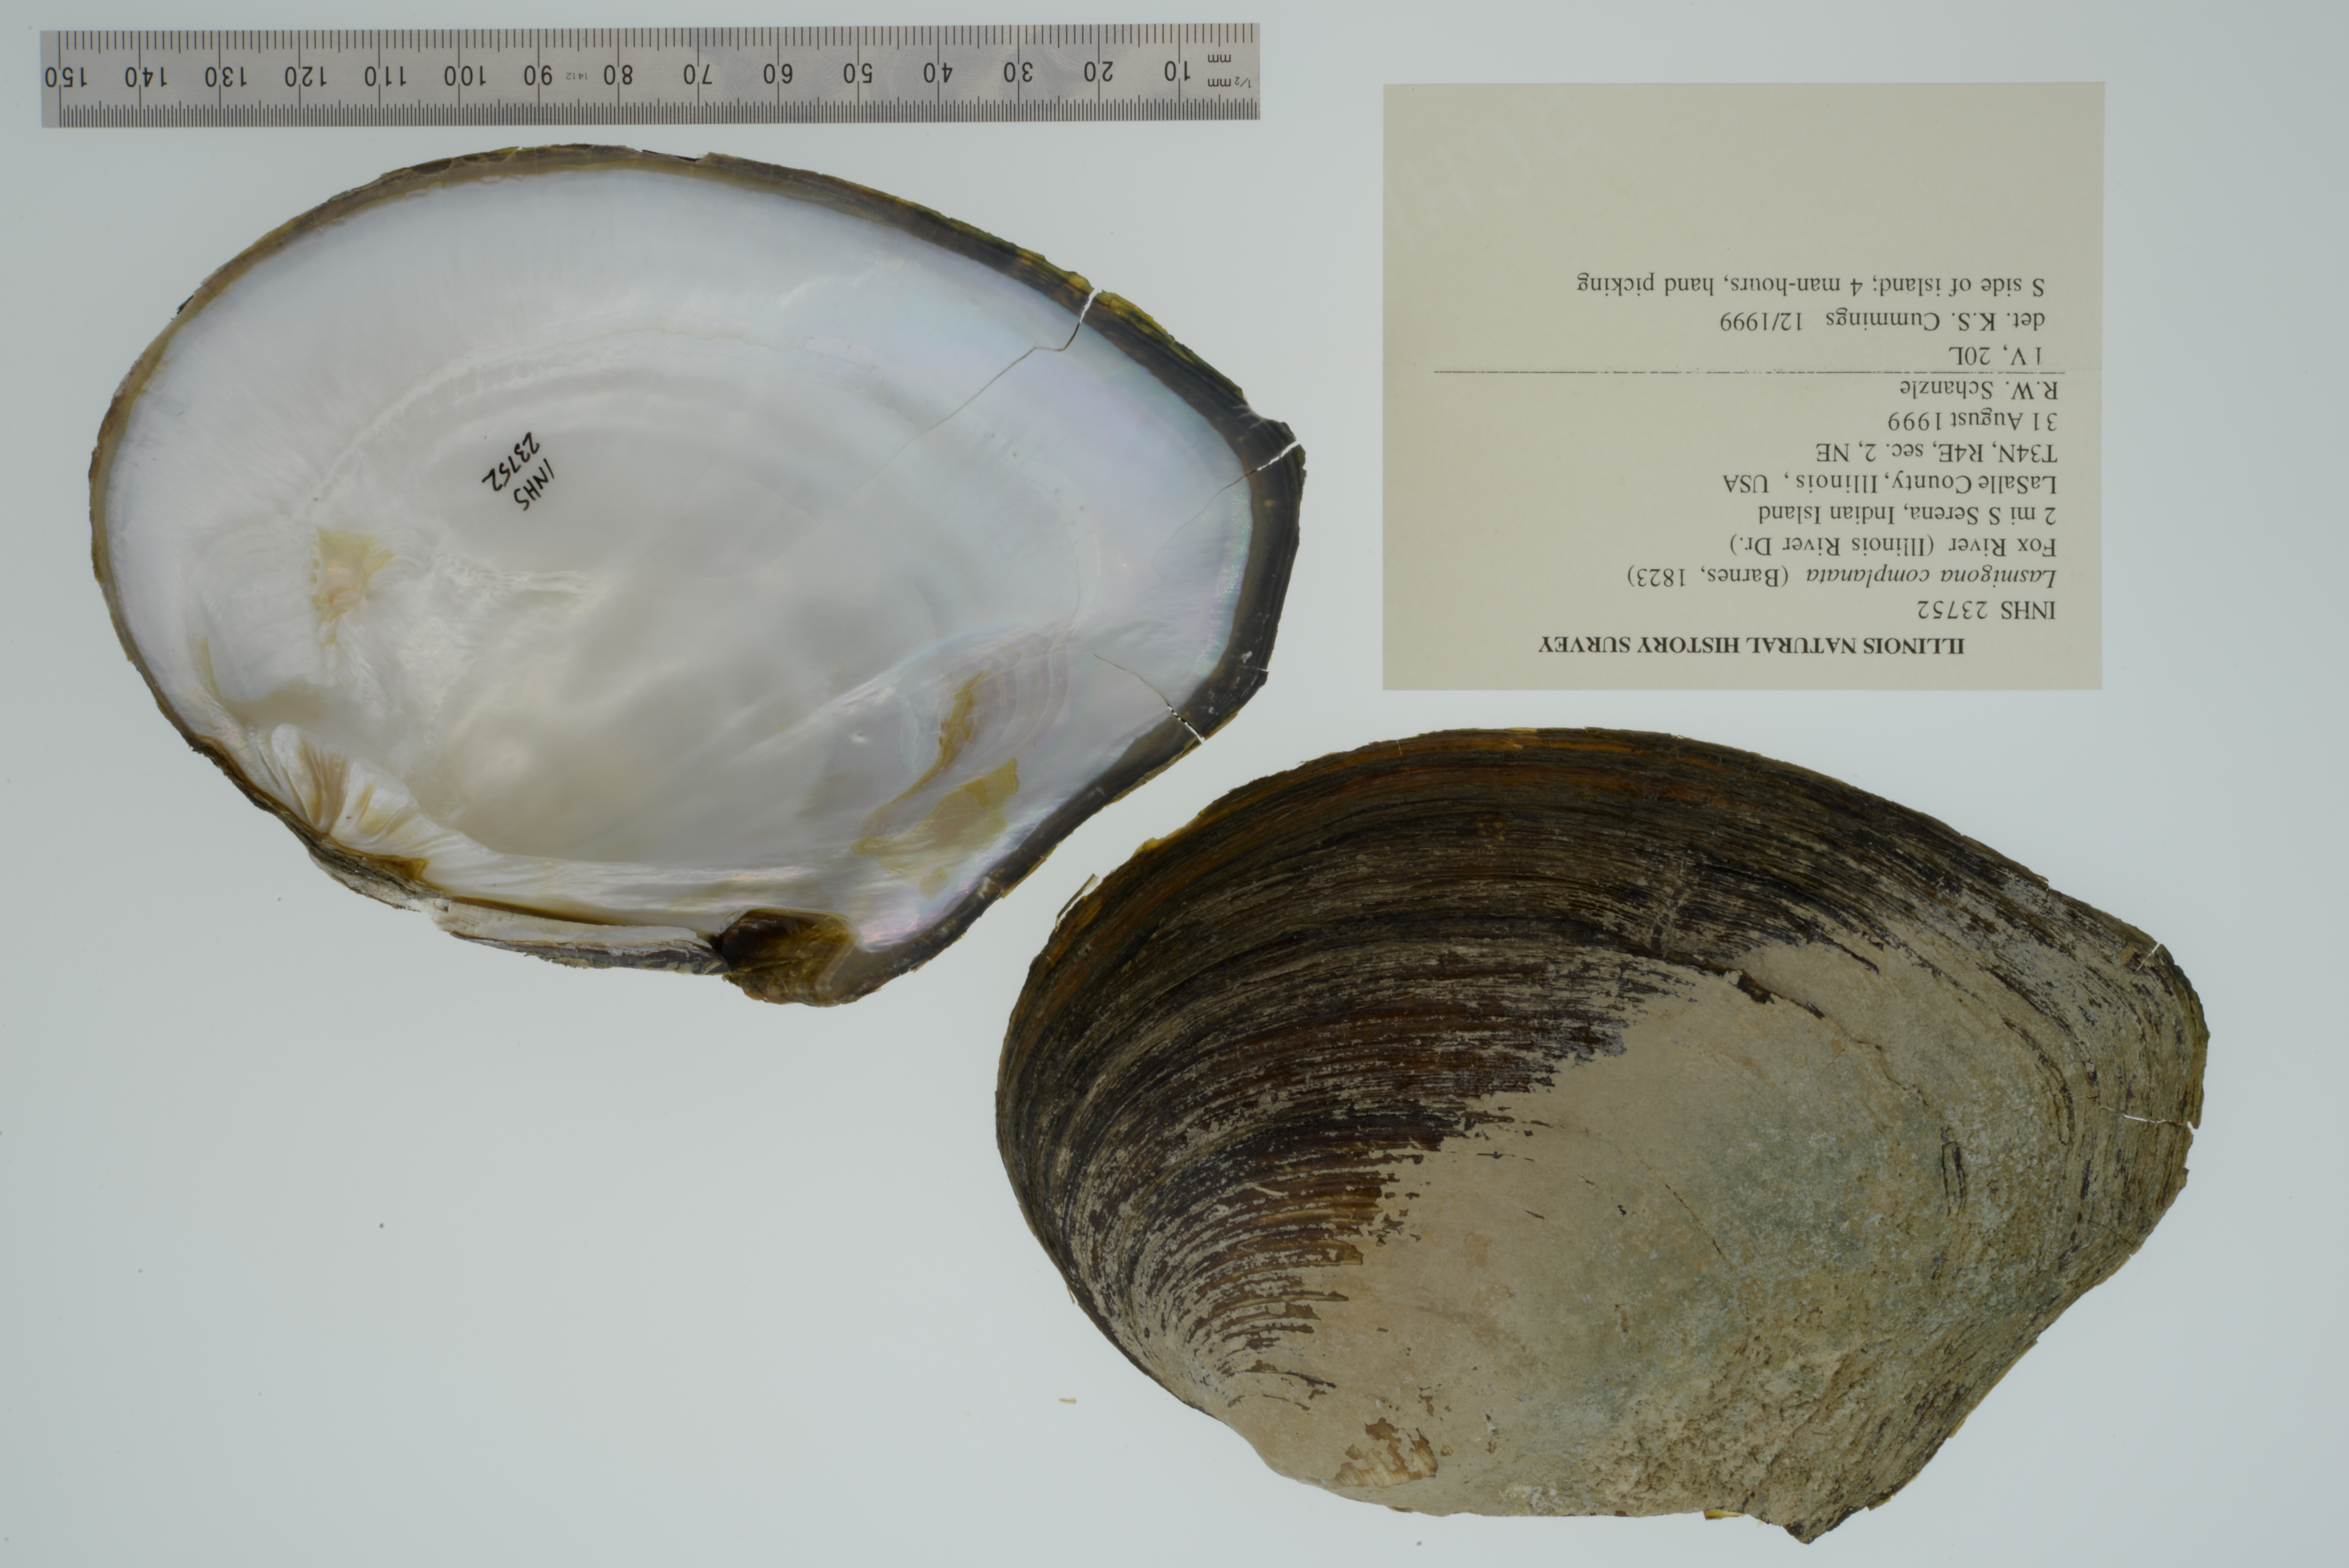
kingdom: Animalia
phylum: Mollusca
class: Bivalvia
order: Unionida
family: Unionidae
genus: Lasmigona
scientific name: Lasmigona complanata
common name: White heelsplitter
